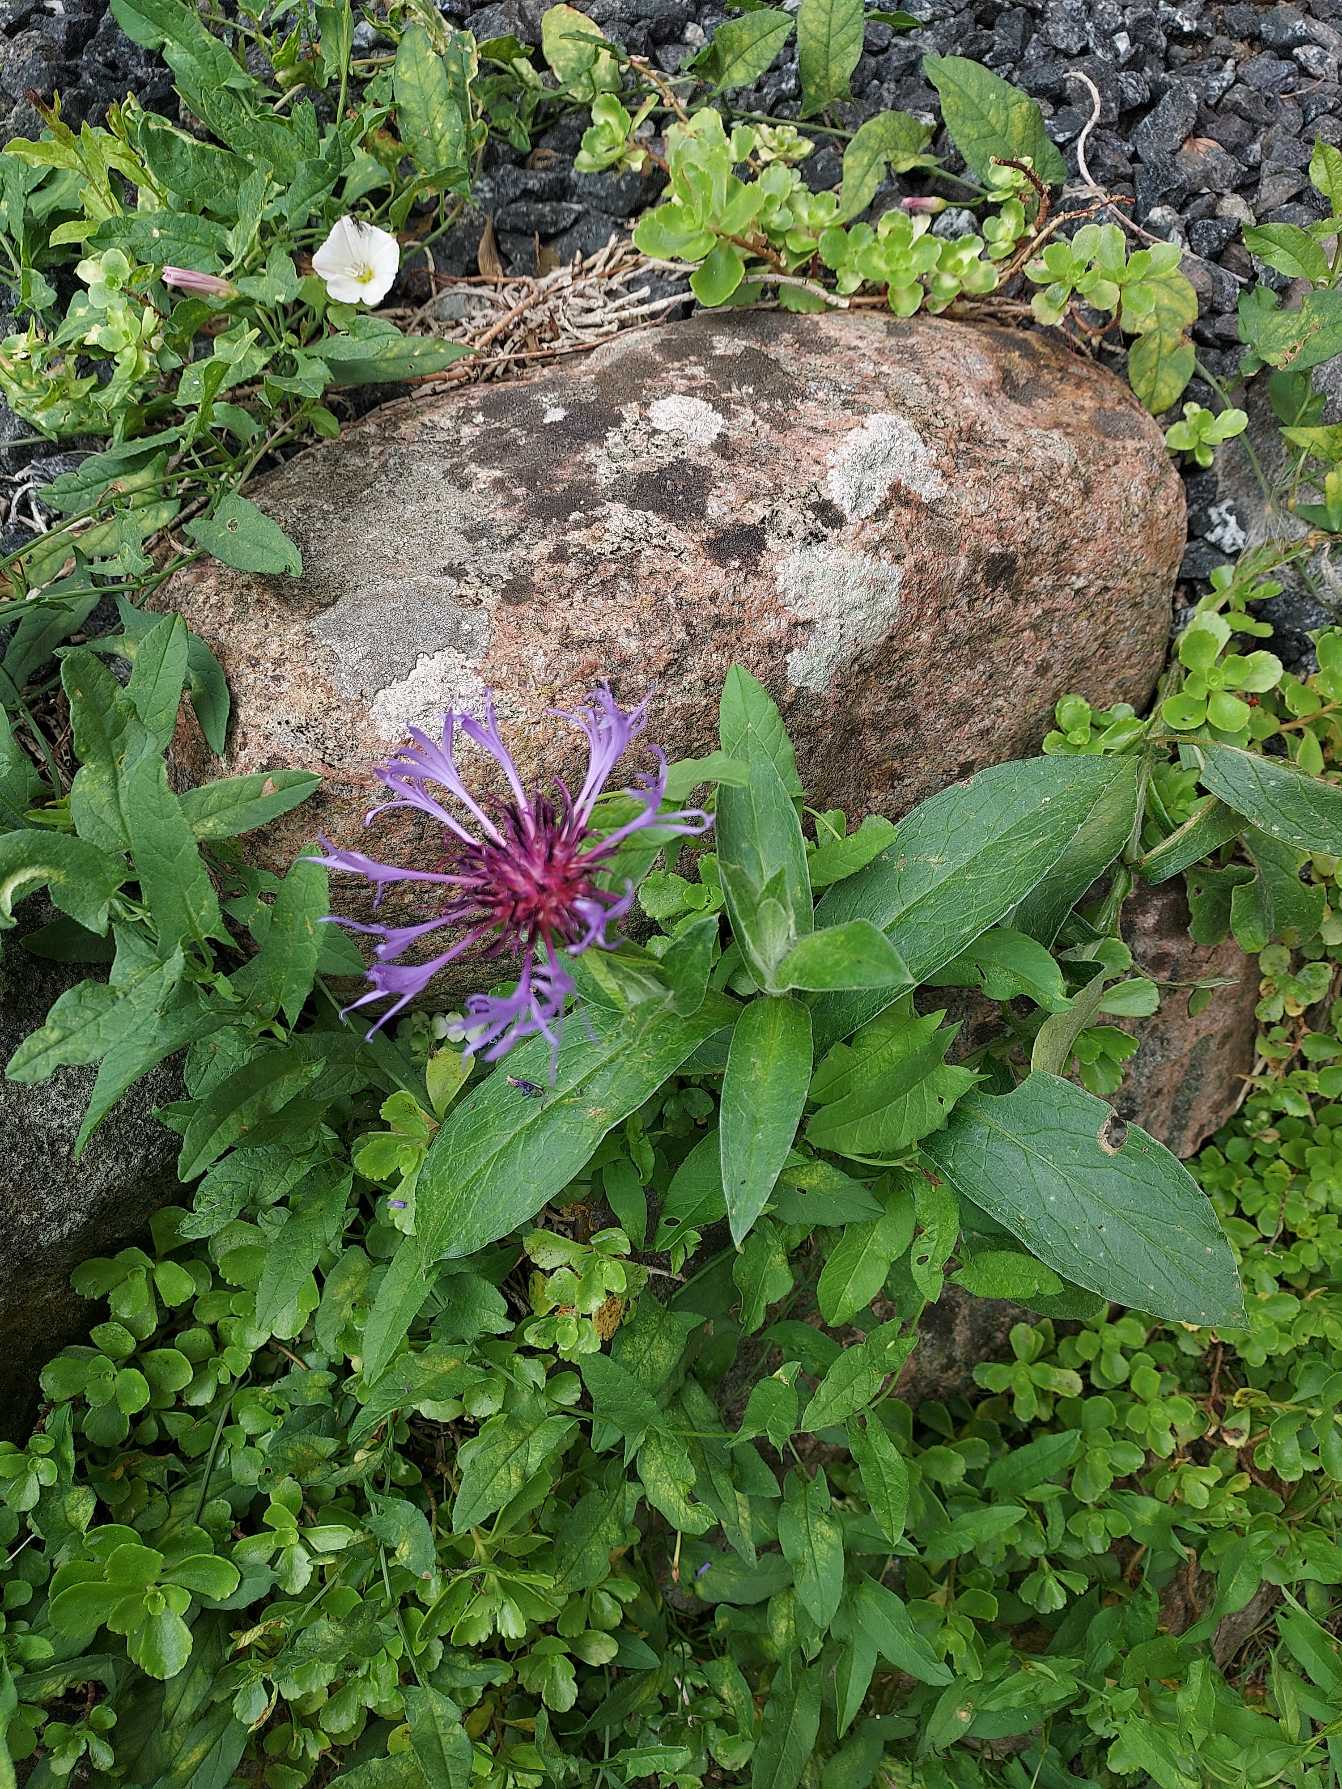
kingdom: Plantae
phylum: Tracheophyta
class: Magnoliopsida
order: Asterales
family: Asteraceae
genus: Centaurea
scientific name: Centaurea montana
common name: Bjerg-knopurt
